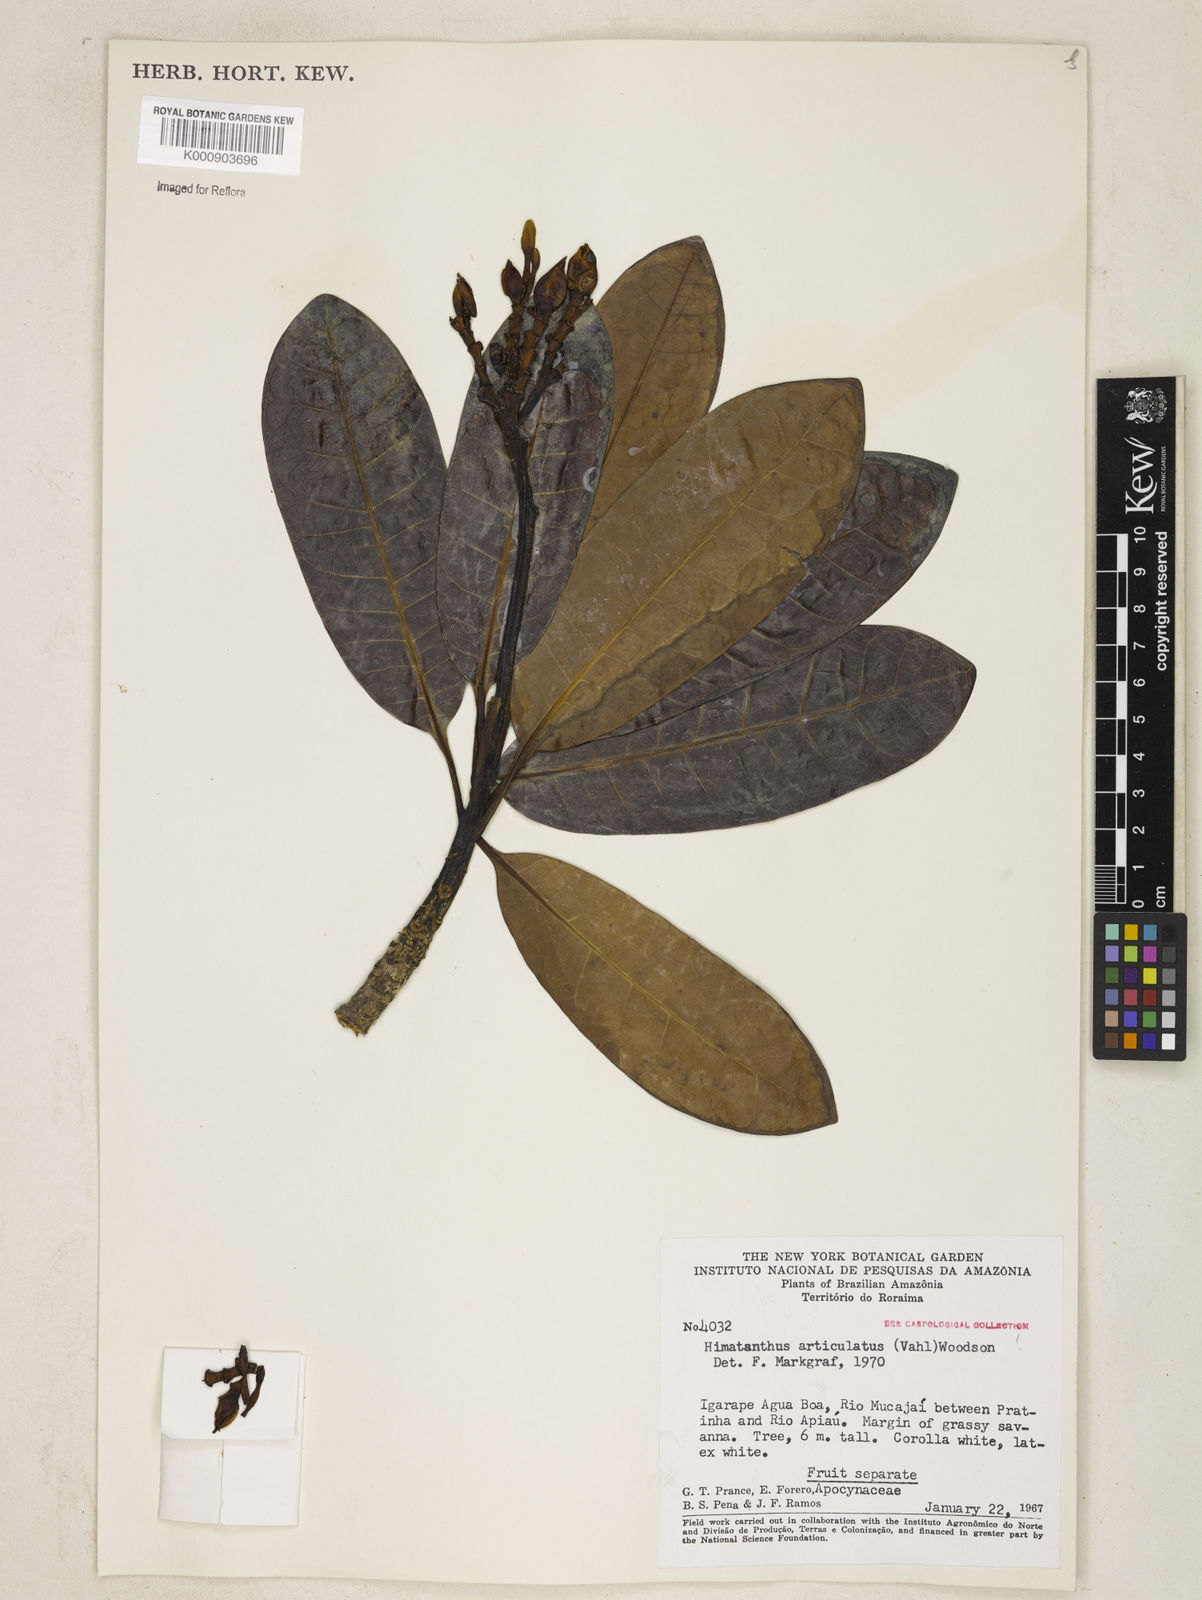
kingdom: Plantae
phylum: Tracheophyta
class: Magnoliopsida
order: Gentianales
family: Apocynaceae
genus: Himatanthus
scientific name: Himatanthus articulatus
